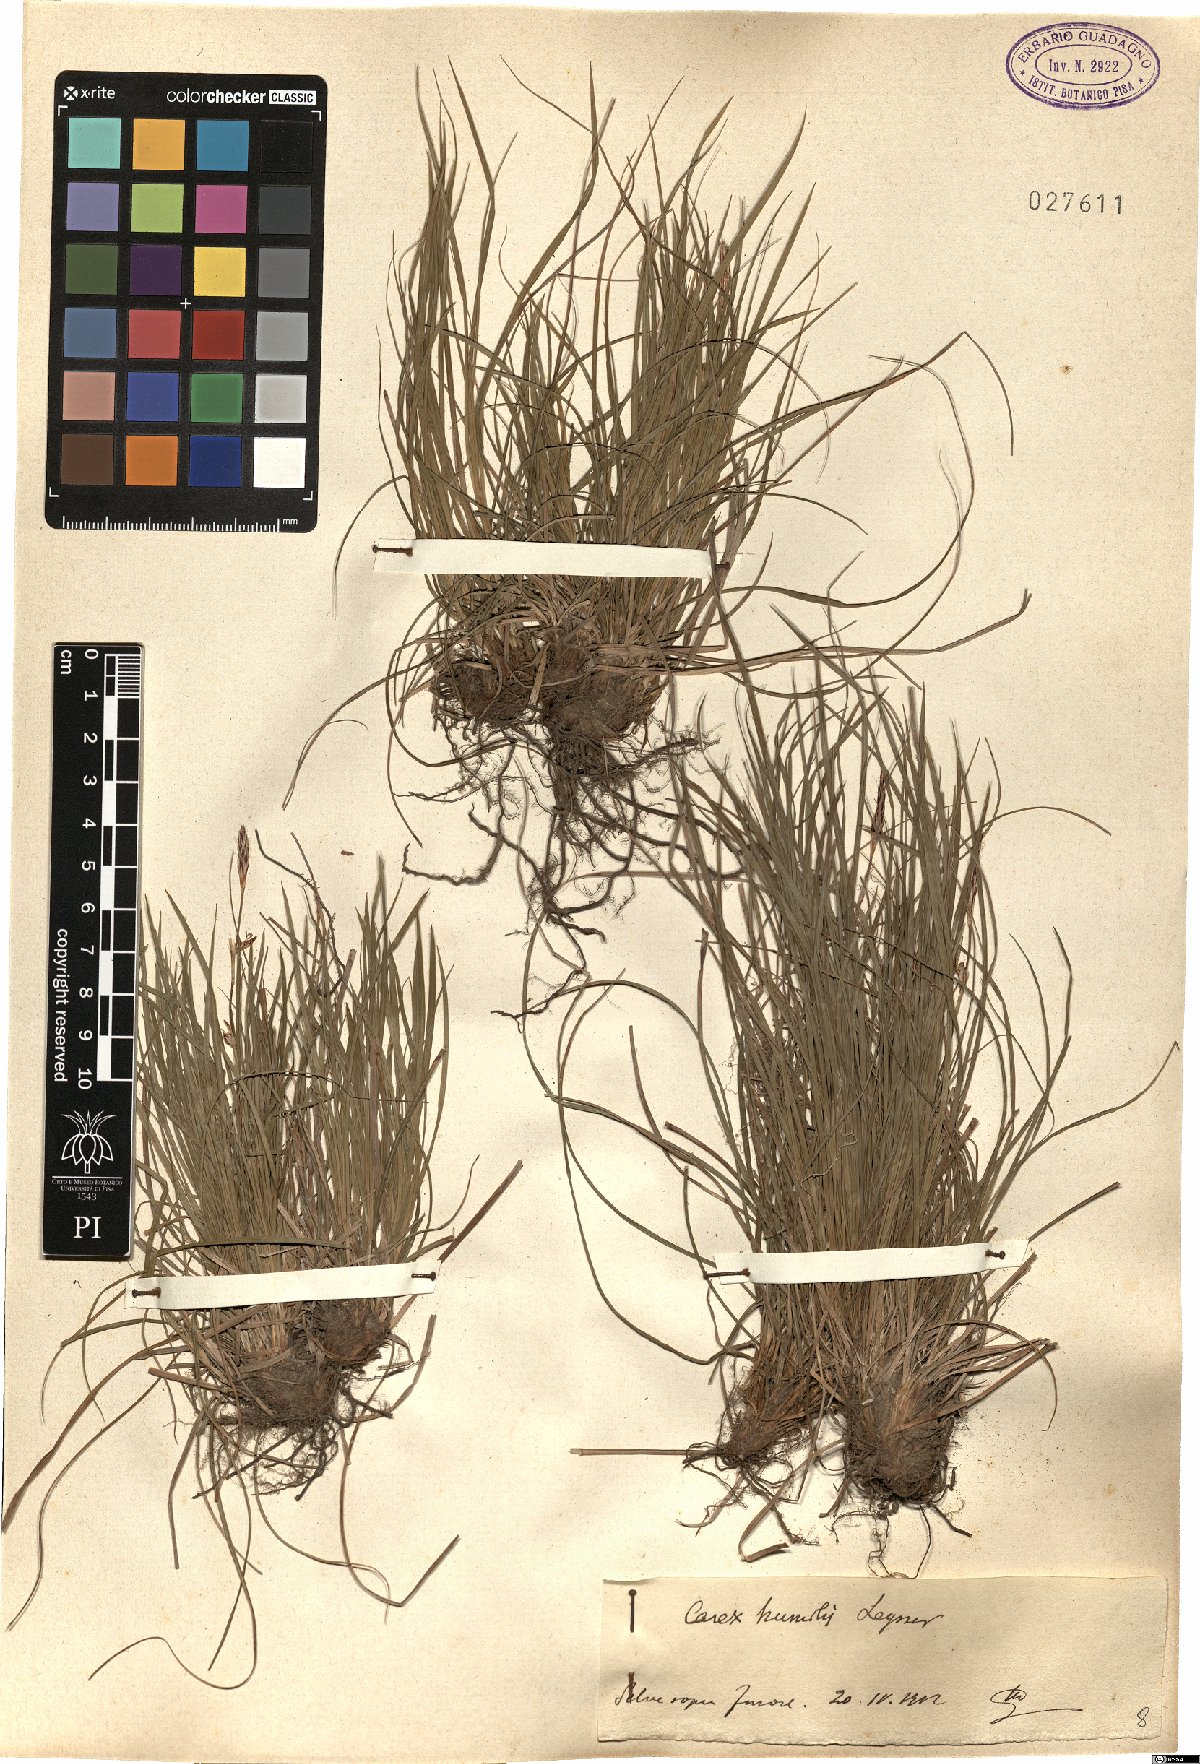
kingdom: Plantae
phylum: Tracheophyta
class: Liliopsida
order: Poales
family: Cyperaceae
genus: Carex
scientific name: Carex humilis
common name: Dwarf sedge
